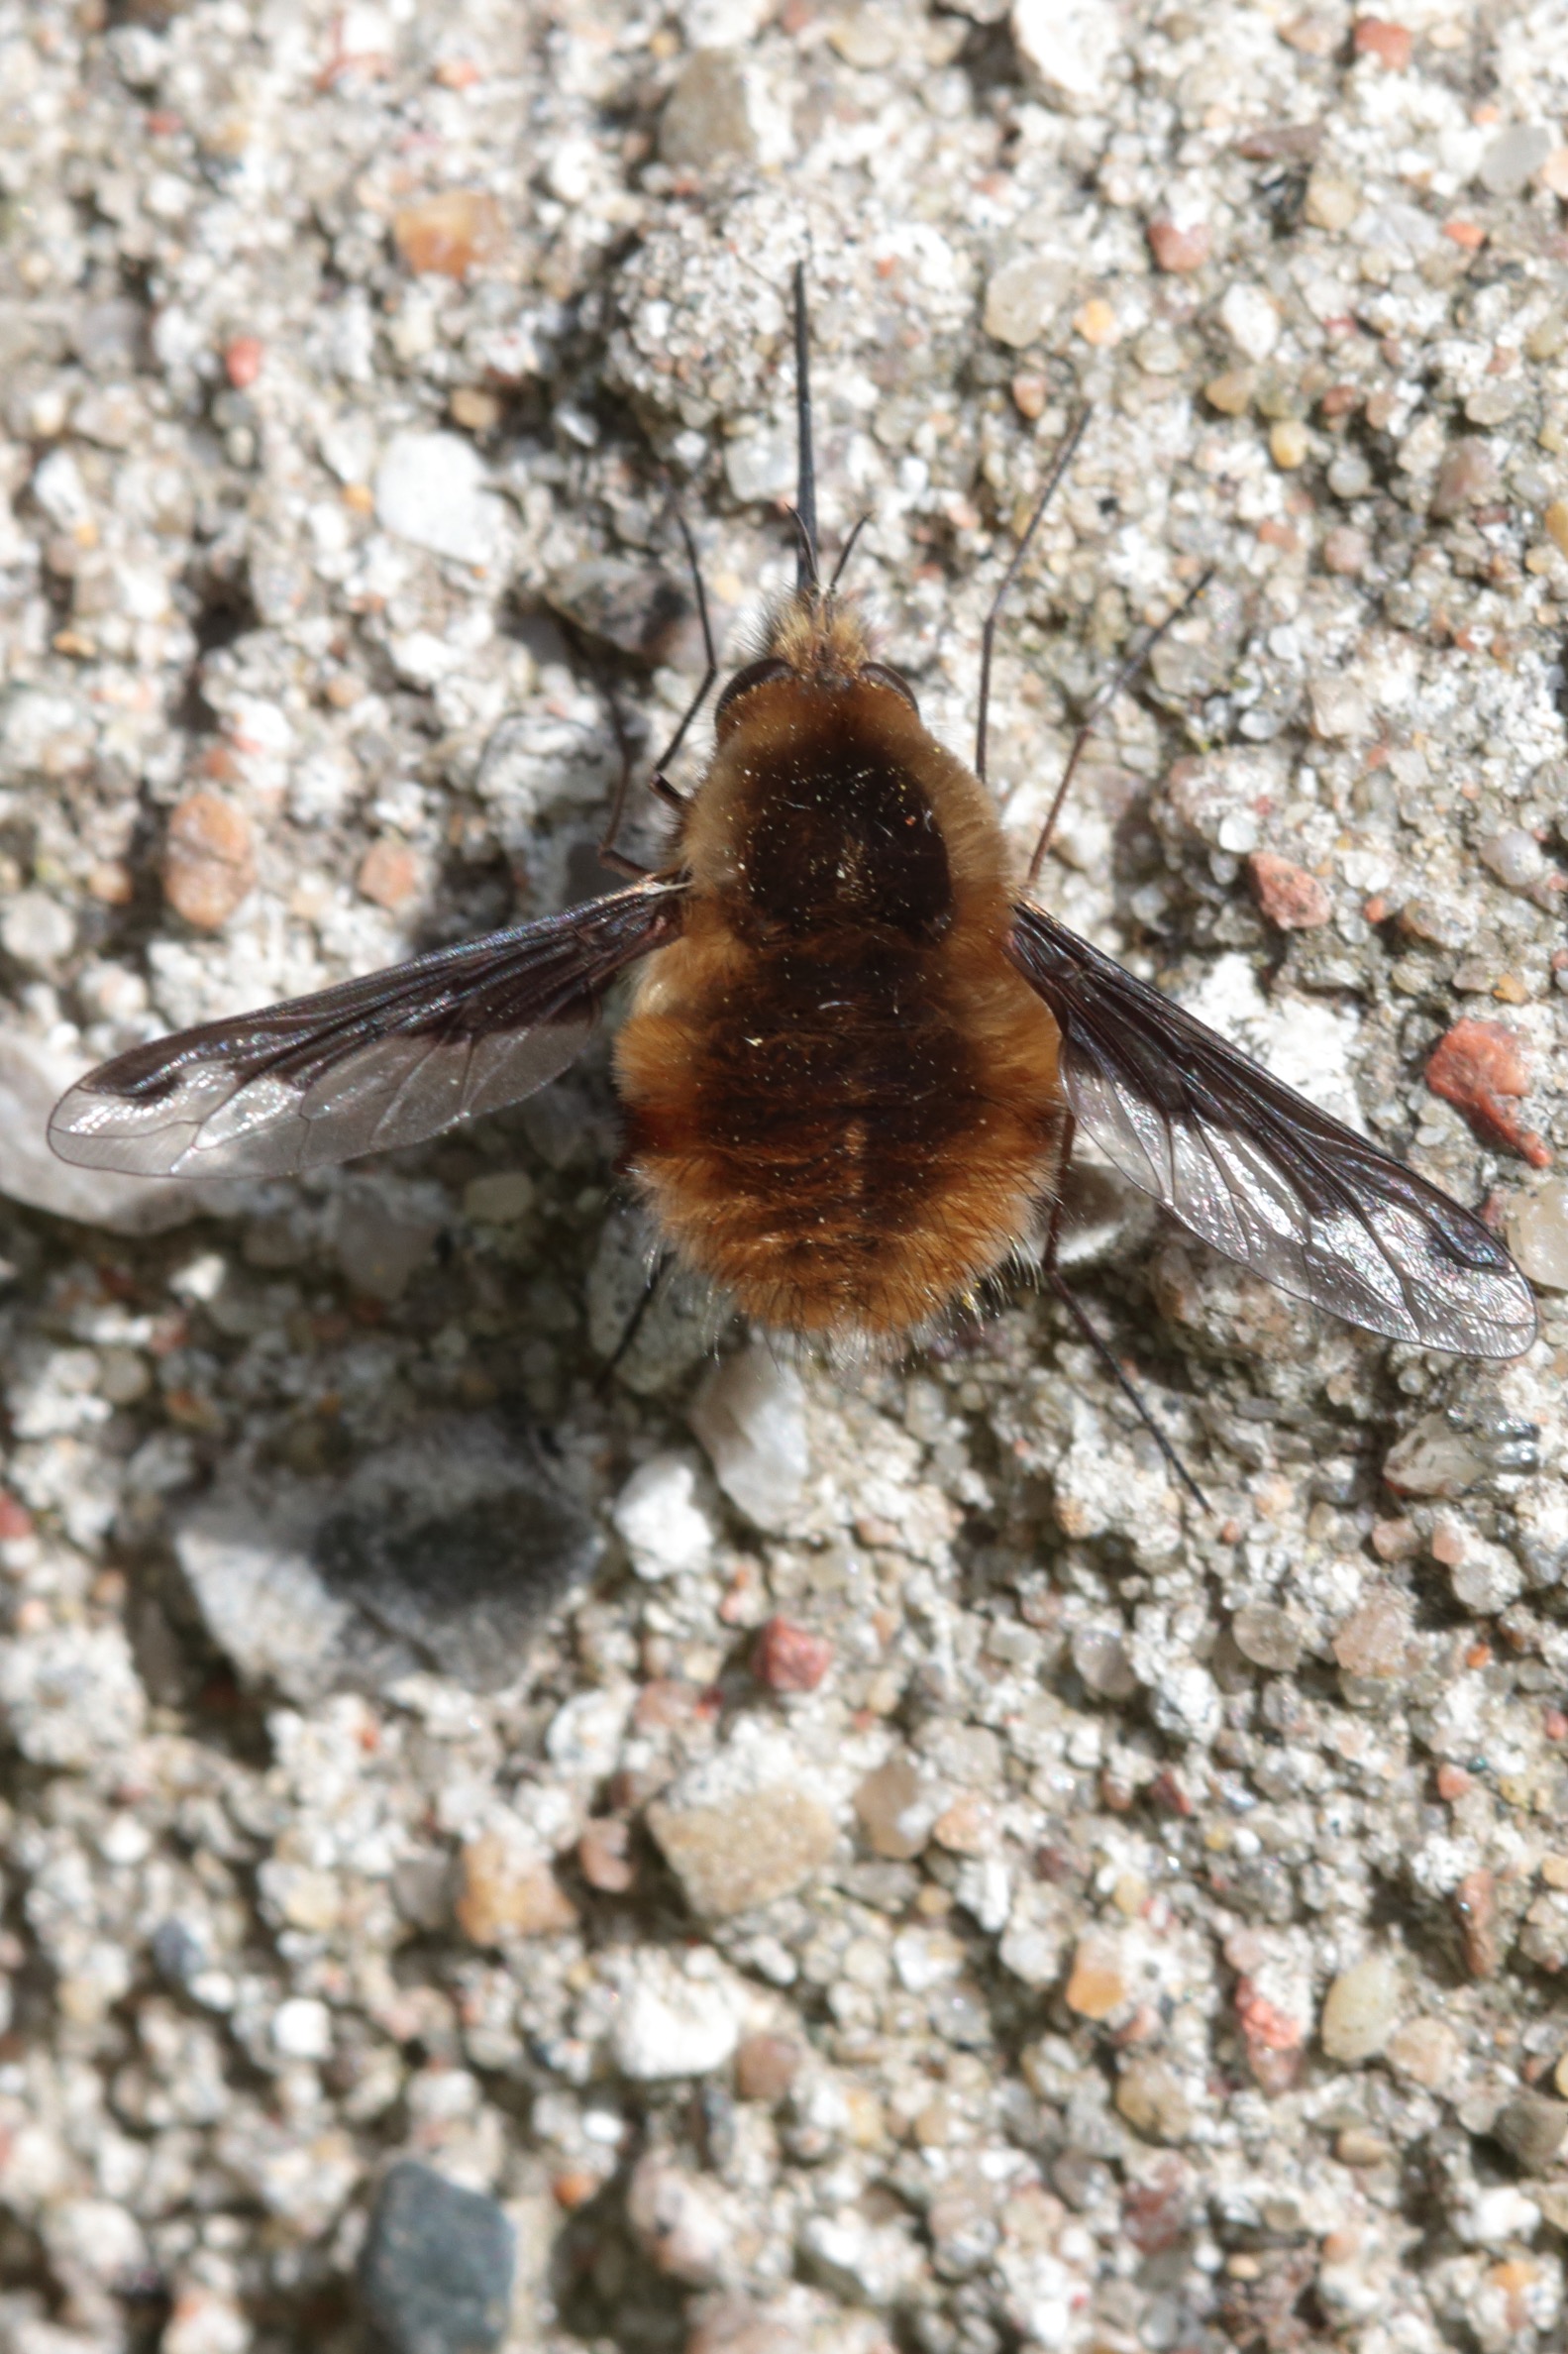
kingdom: Animalia
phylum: Arthropoda
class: Insecta
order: Diptera
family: Bombyliidae
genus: Bombylius
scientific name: Bombylius major
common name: Stor humleflue
